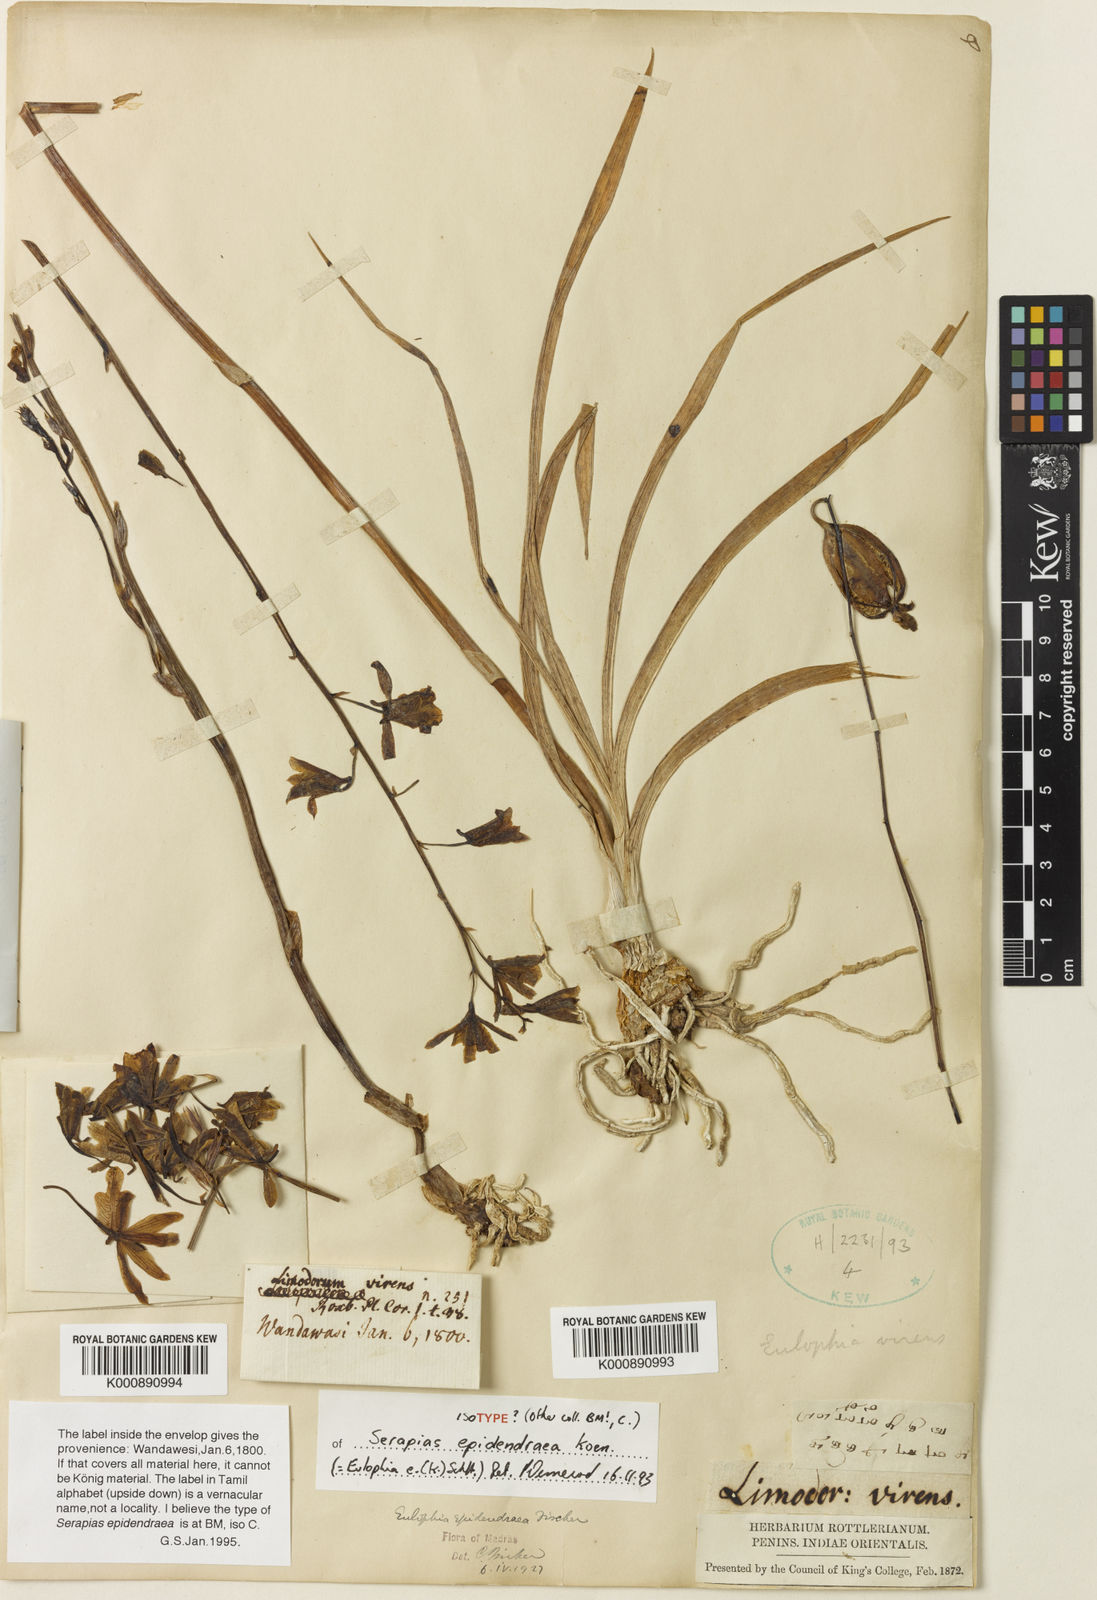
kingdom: Plantae
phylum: Tracheophyta
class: Liliopsida
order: Asparagales
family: Orchidaceae
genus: Eulophia
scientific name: Eulophia epidendraea
